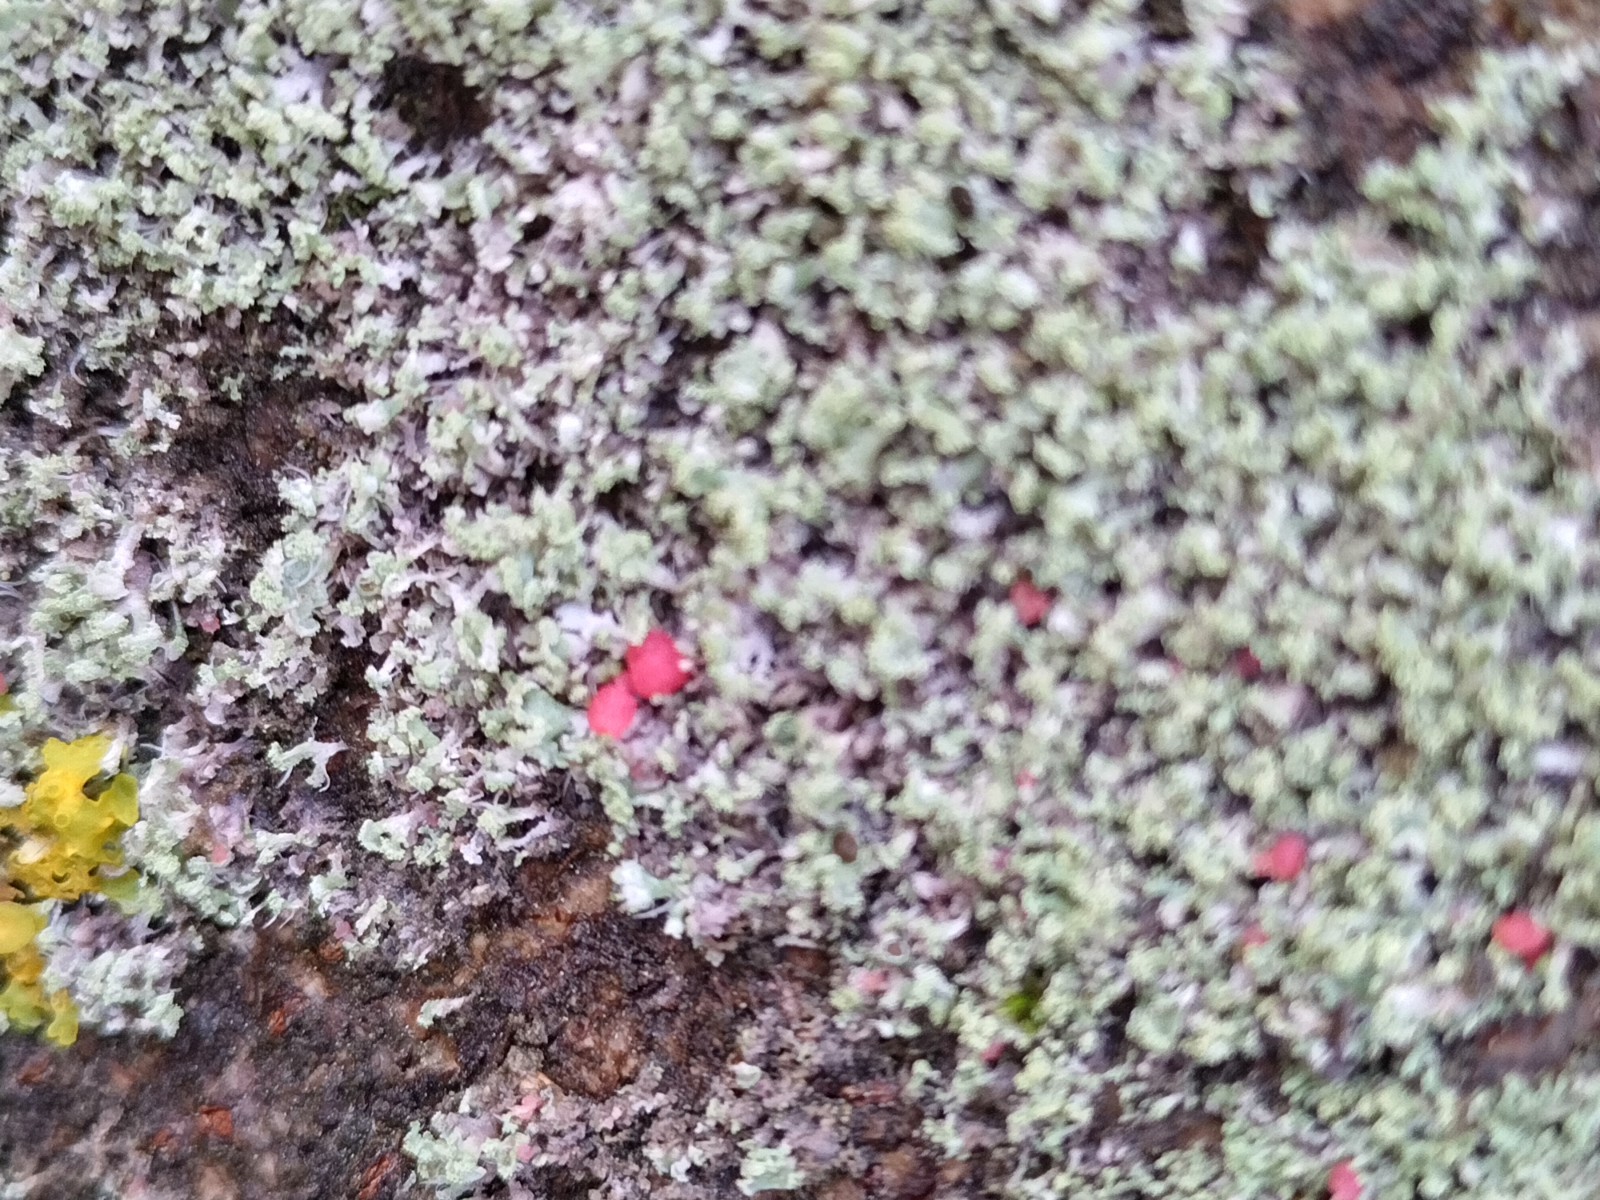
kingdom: Fungi
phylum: Ascomycota
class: Sordariomycetes
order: Hypocreales
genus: Illosporiopsis
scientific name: Illosporiopsis christiansenii
